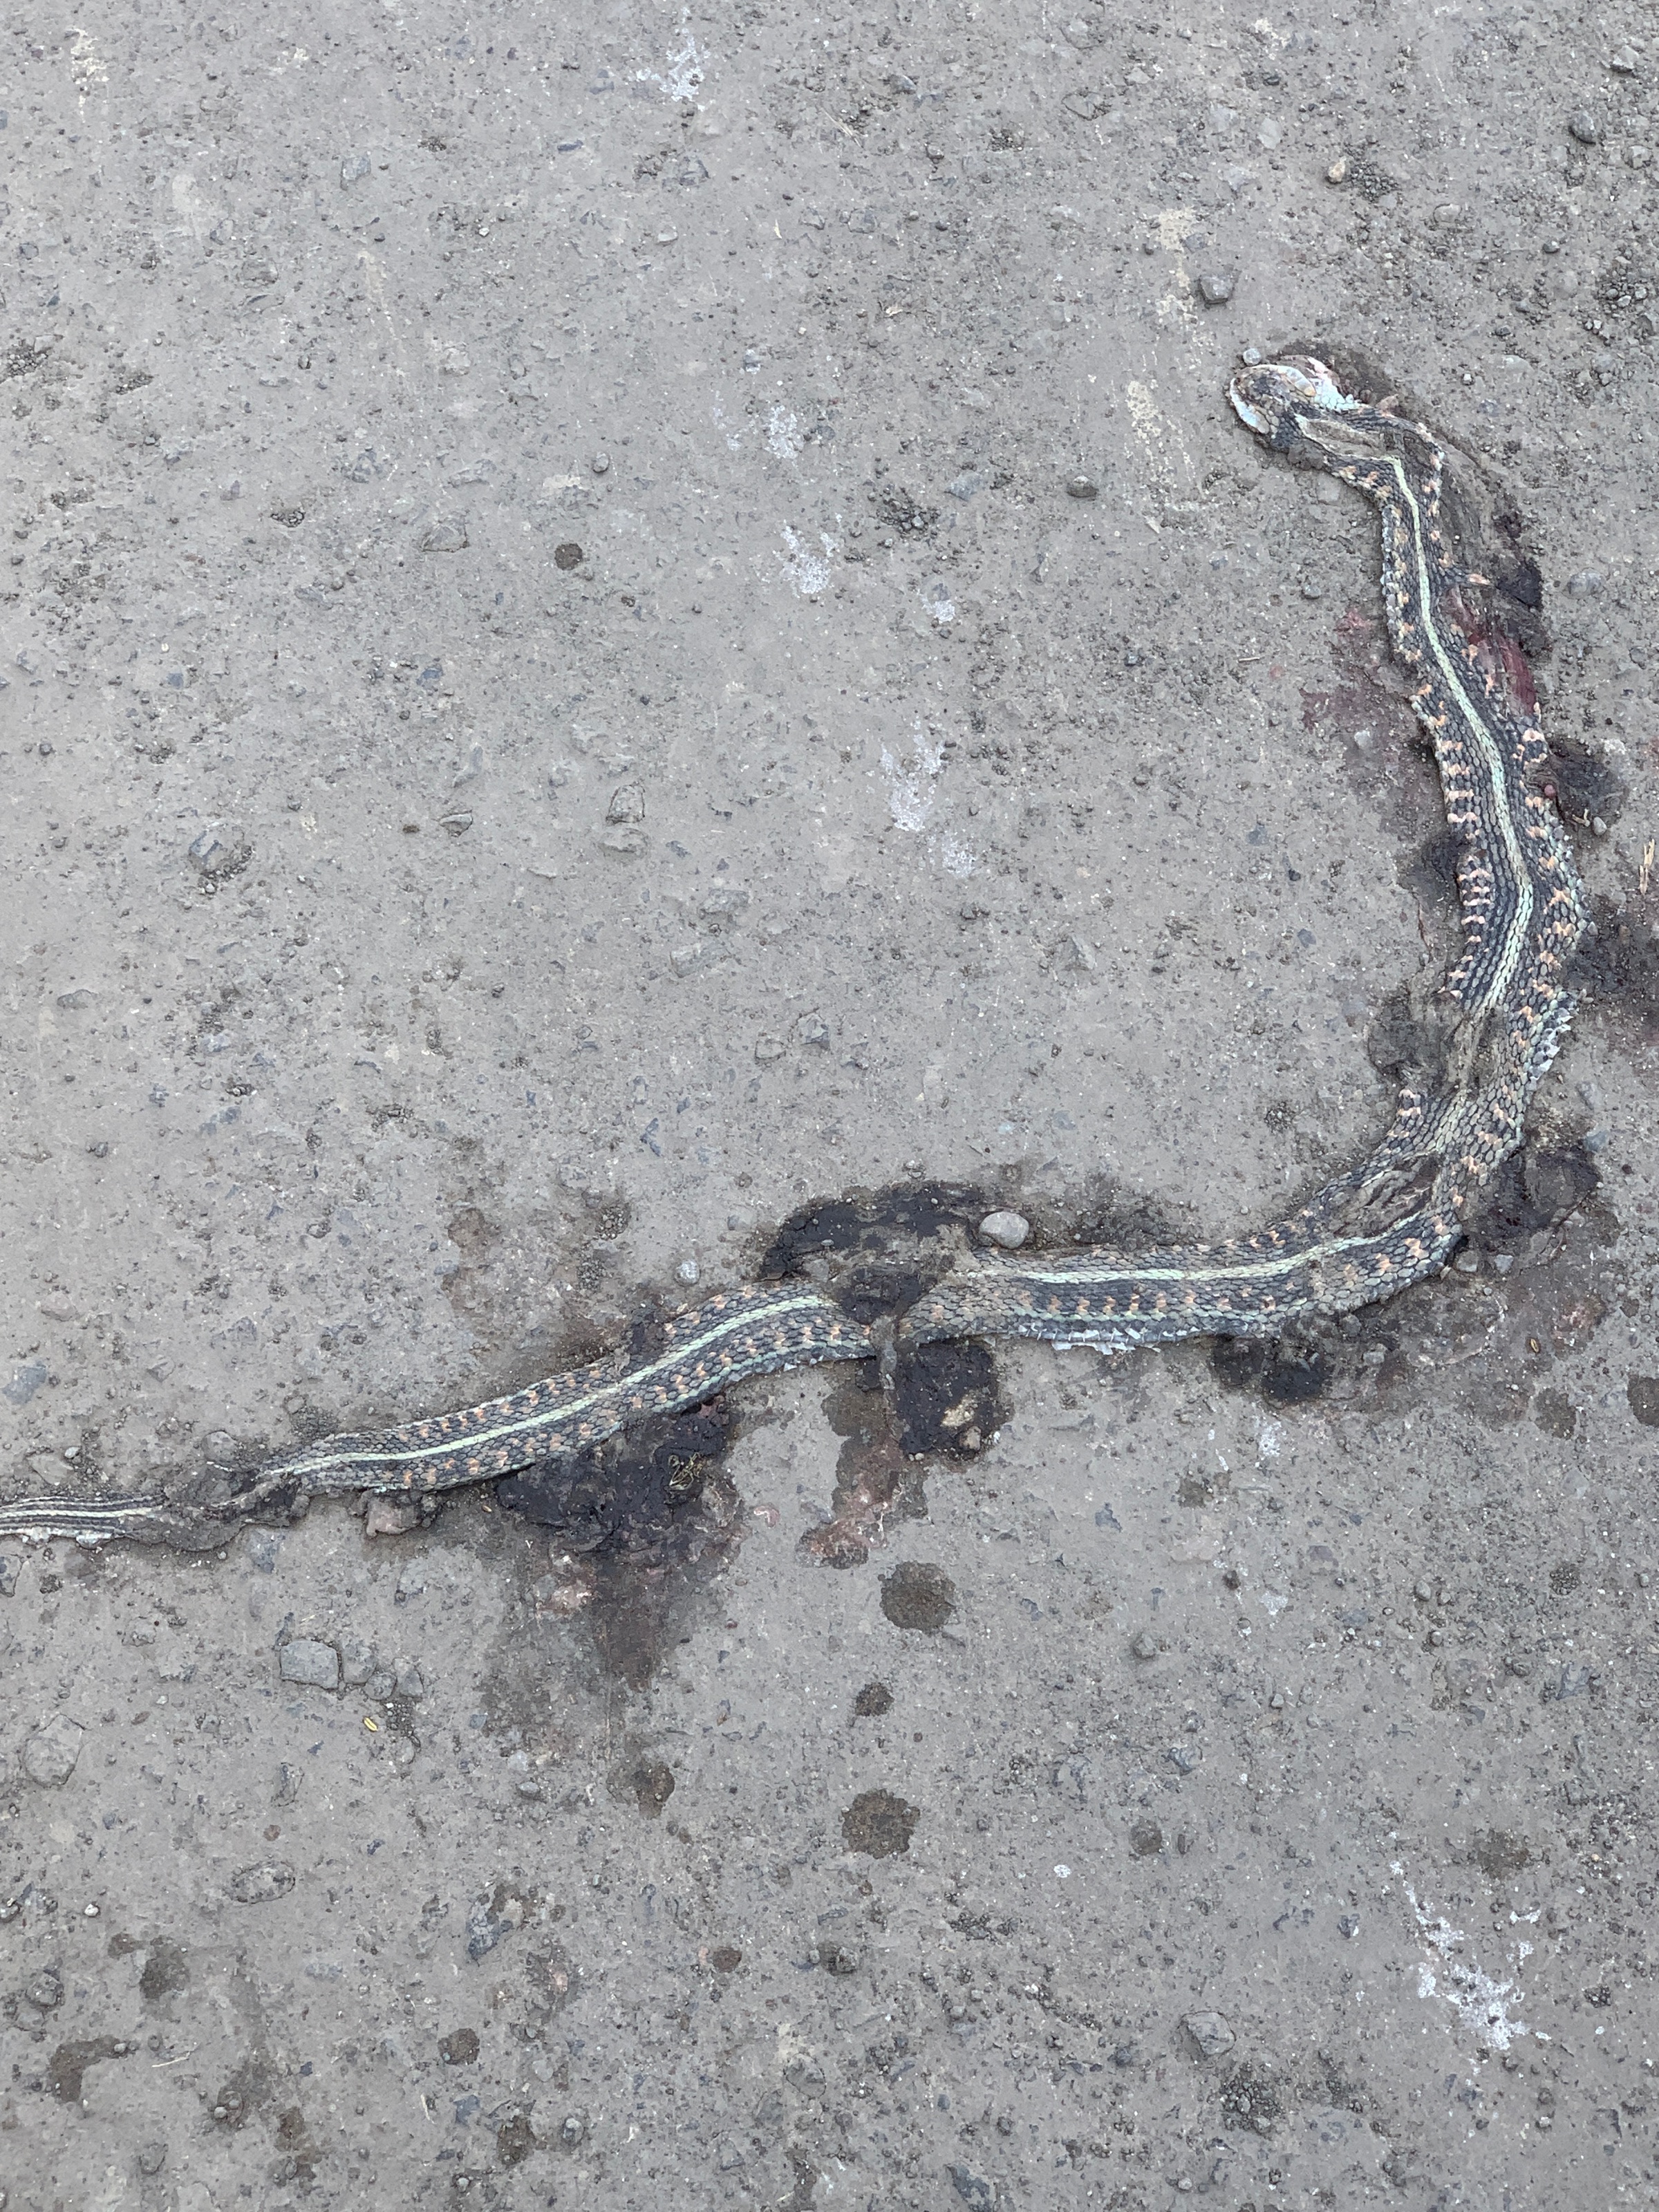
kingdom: Animalia
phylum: Chordata
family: Serpentes
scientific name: Serpentes
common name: Snake
